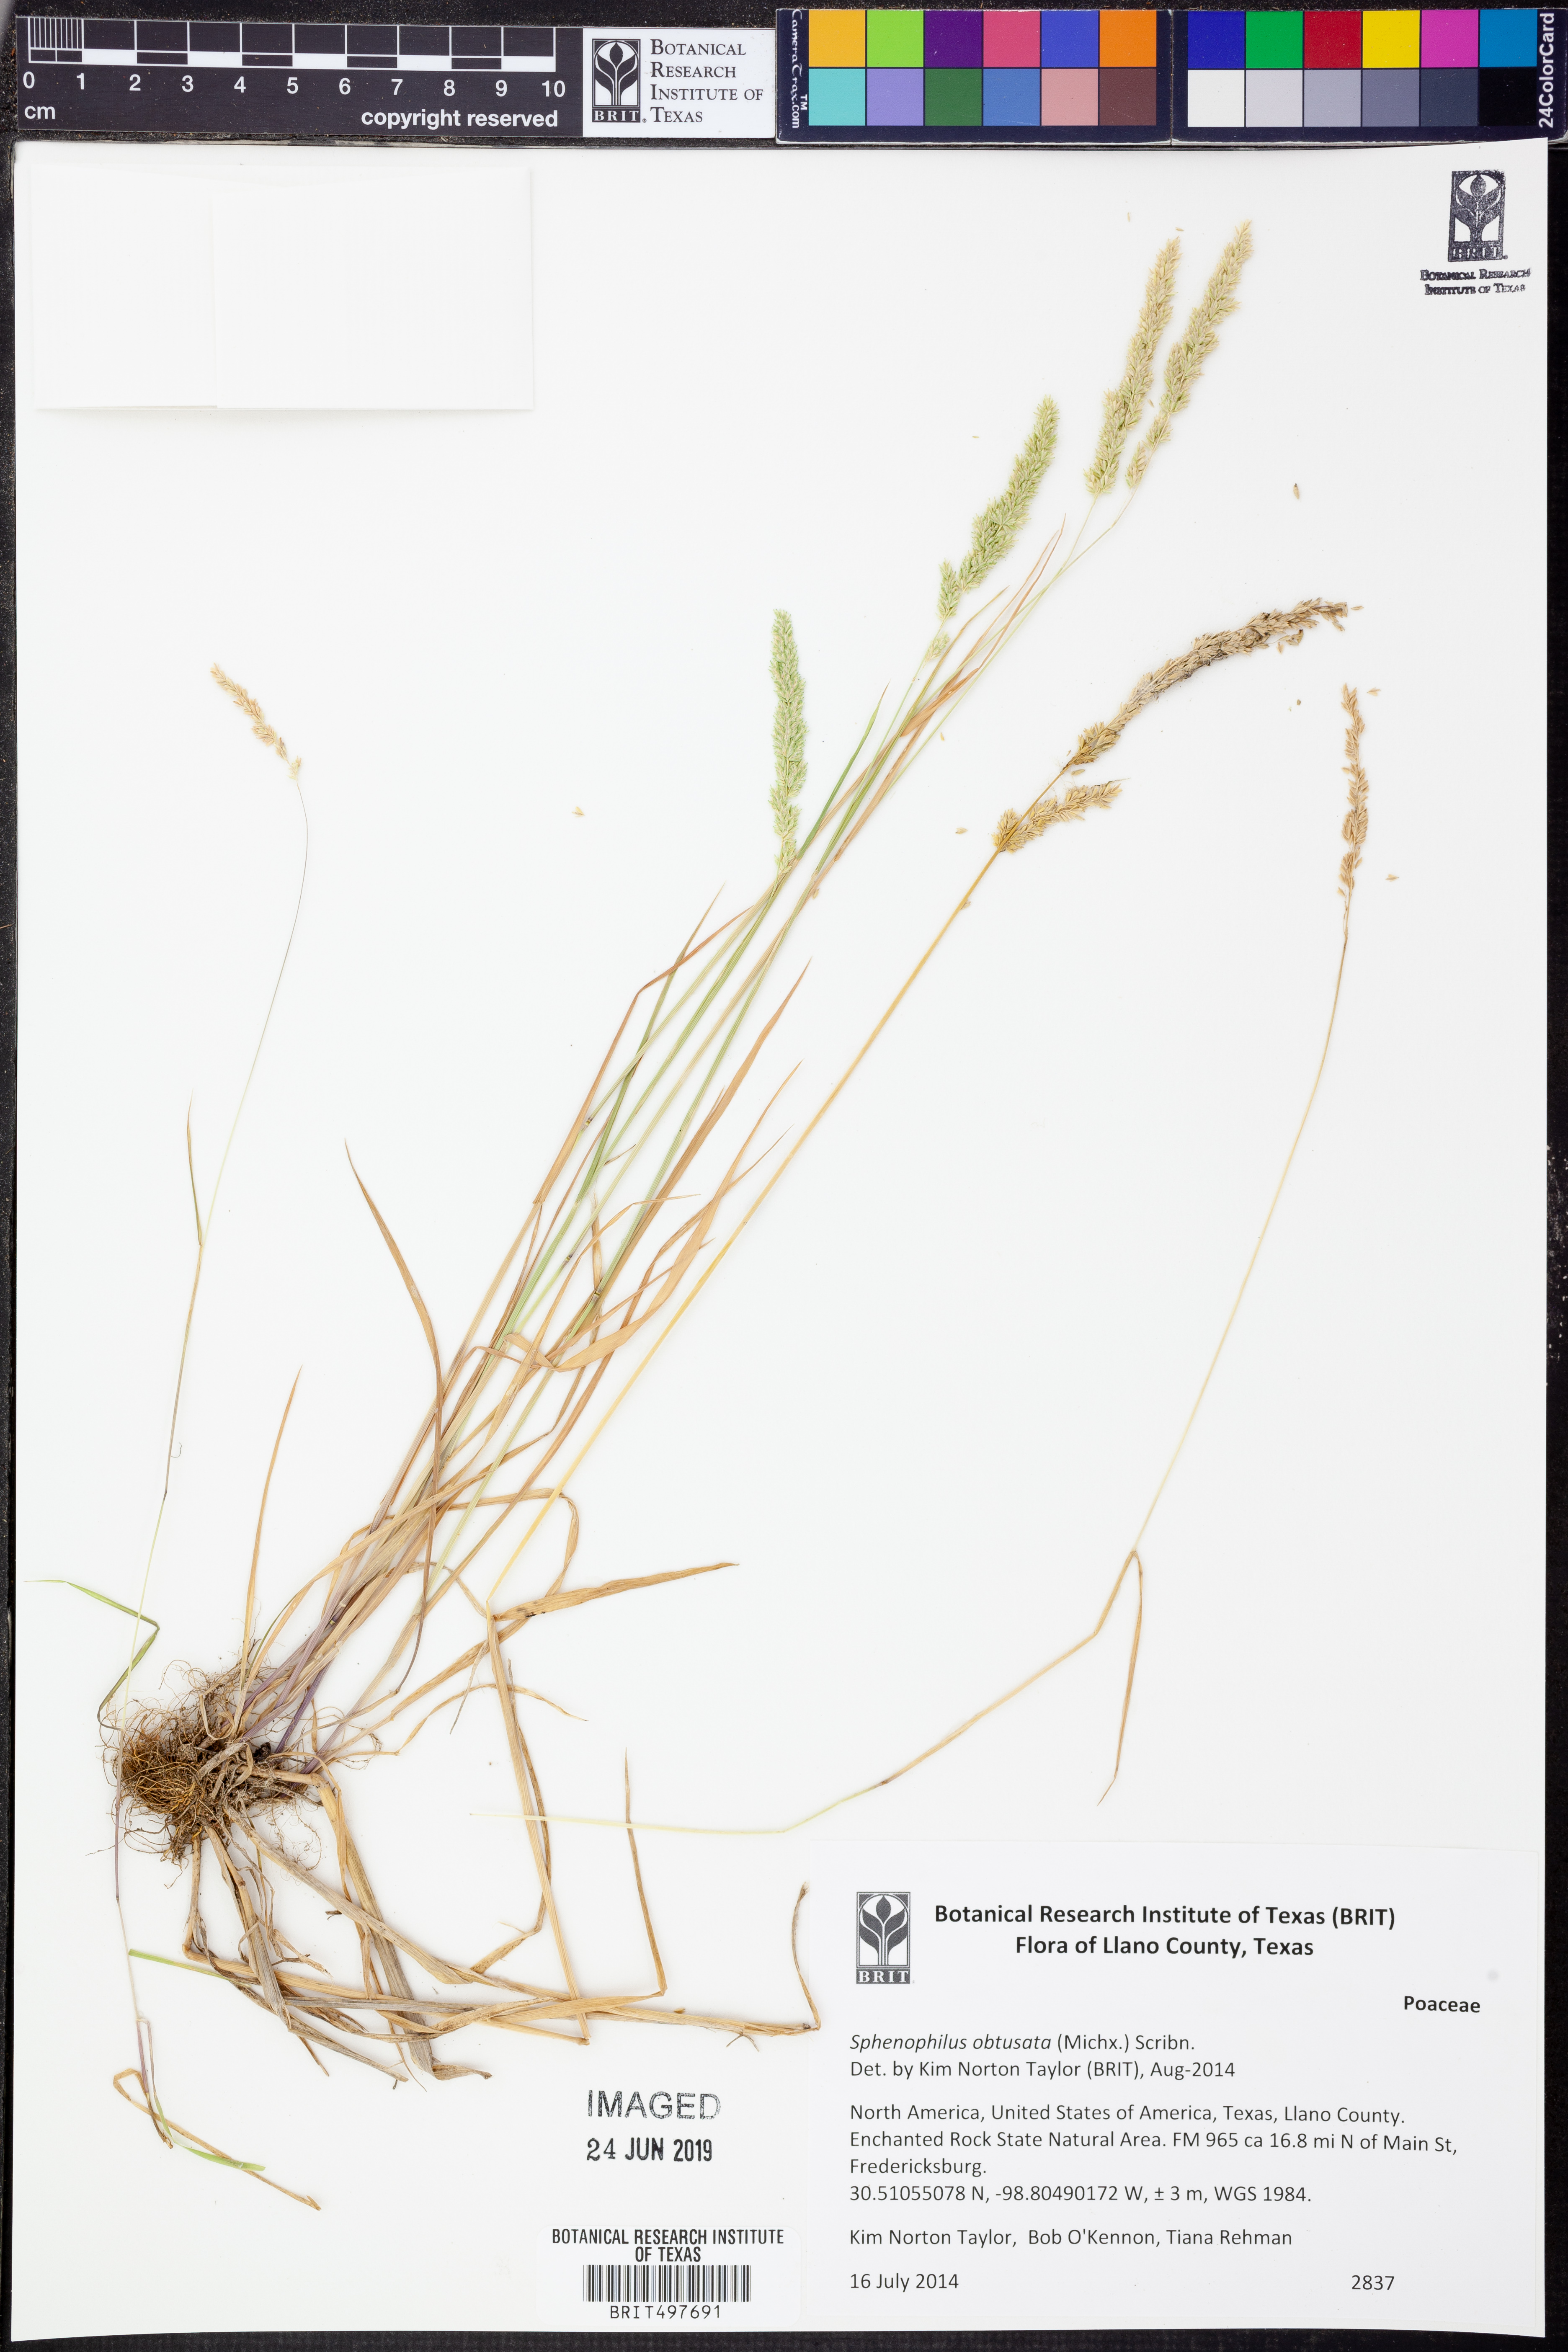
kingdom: Plantae
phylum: Tracheophyta
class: Liliopsida
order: Poales
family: Poaceae
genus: Sphenopholis
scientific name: Sphenopholis obtusata
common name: Prairie grass
